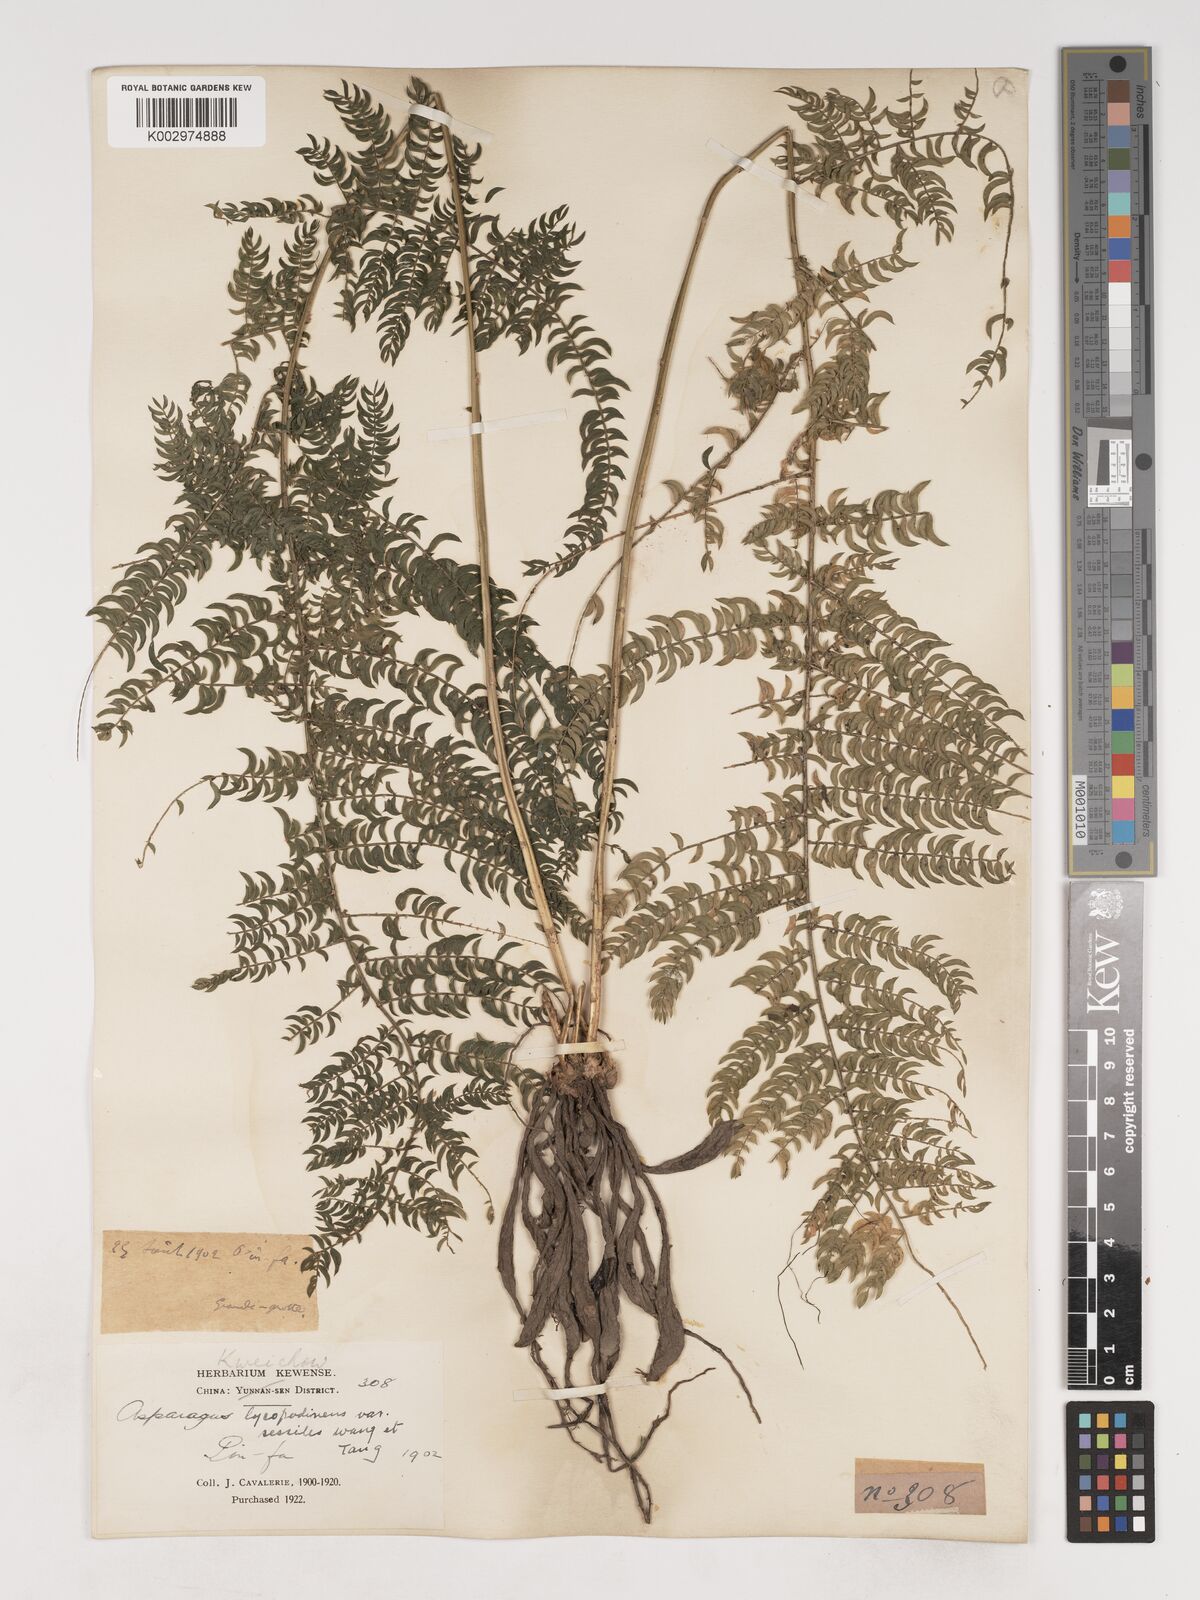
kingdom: Plantae
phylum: Tracheophyta
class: Liliopsida
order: Asparagales
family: Asparagaceae
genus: Asparagus
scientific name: Asparagus lycopodineus
